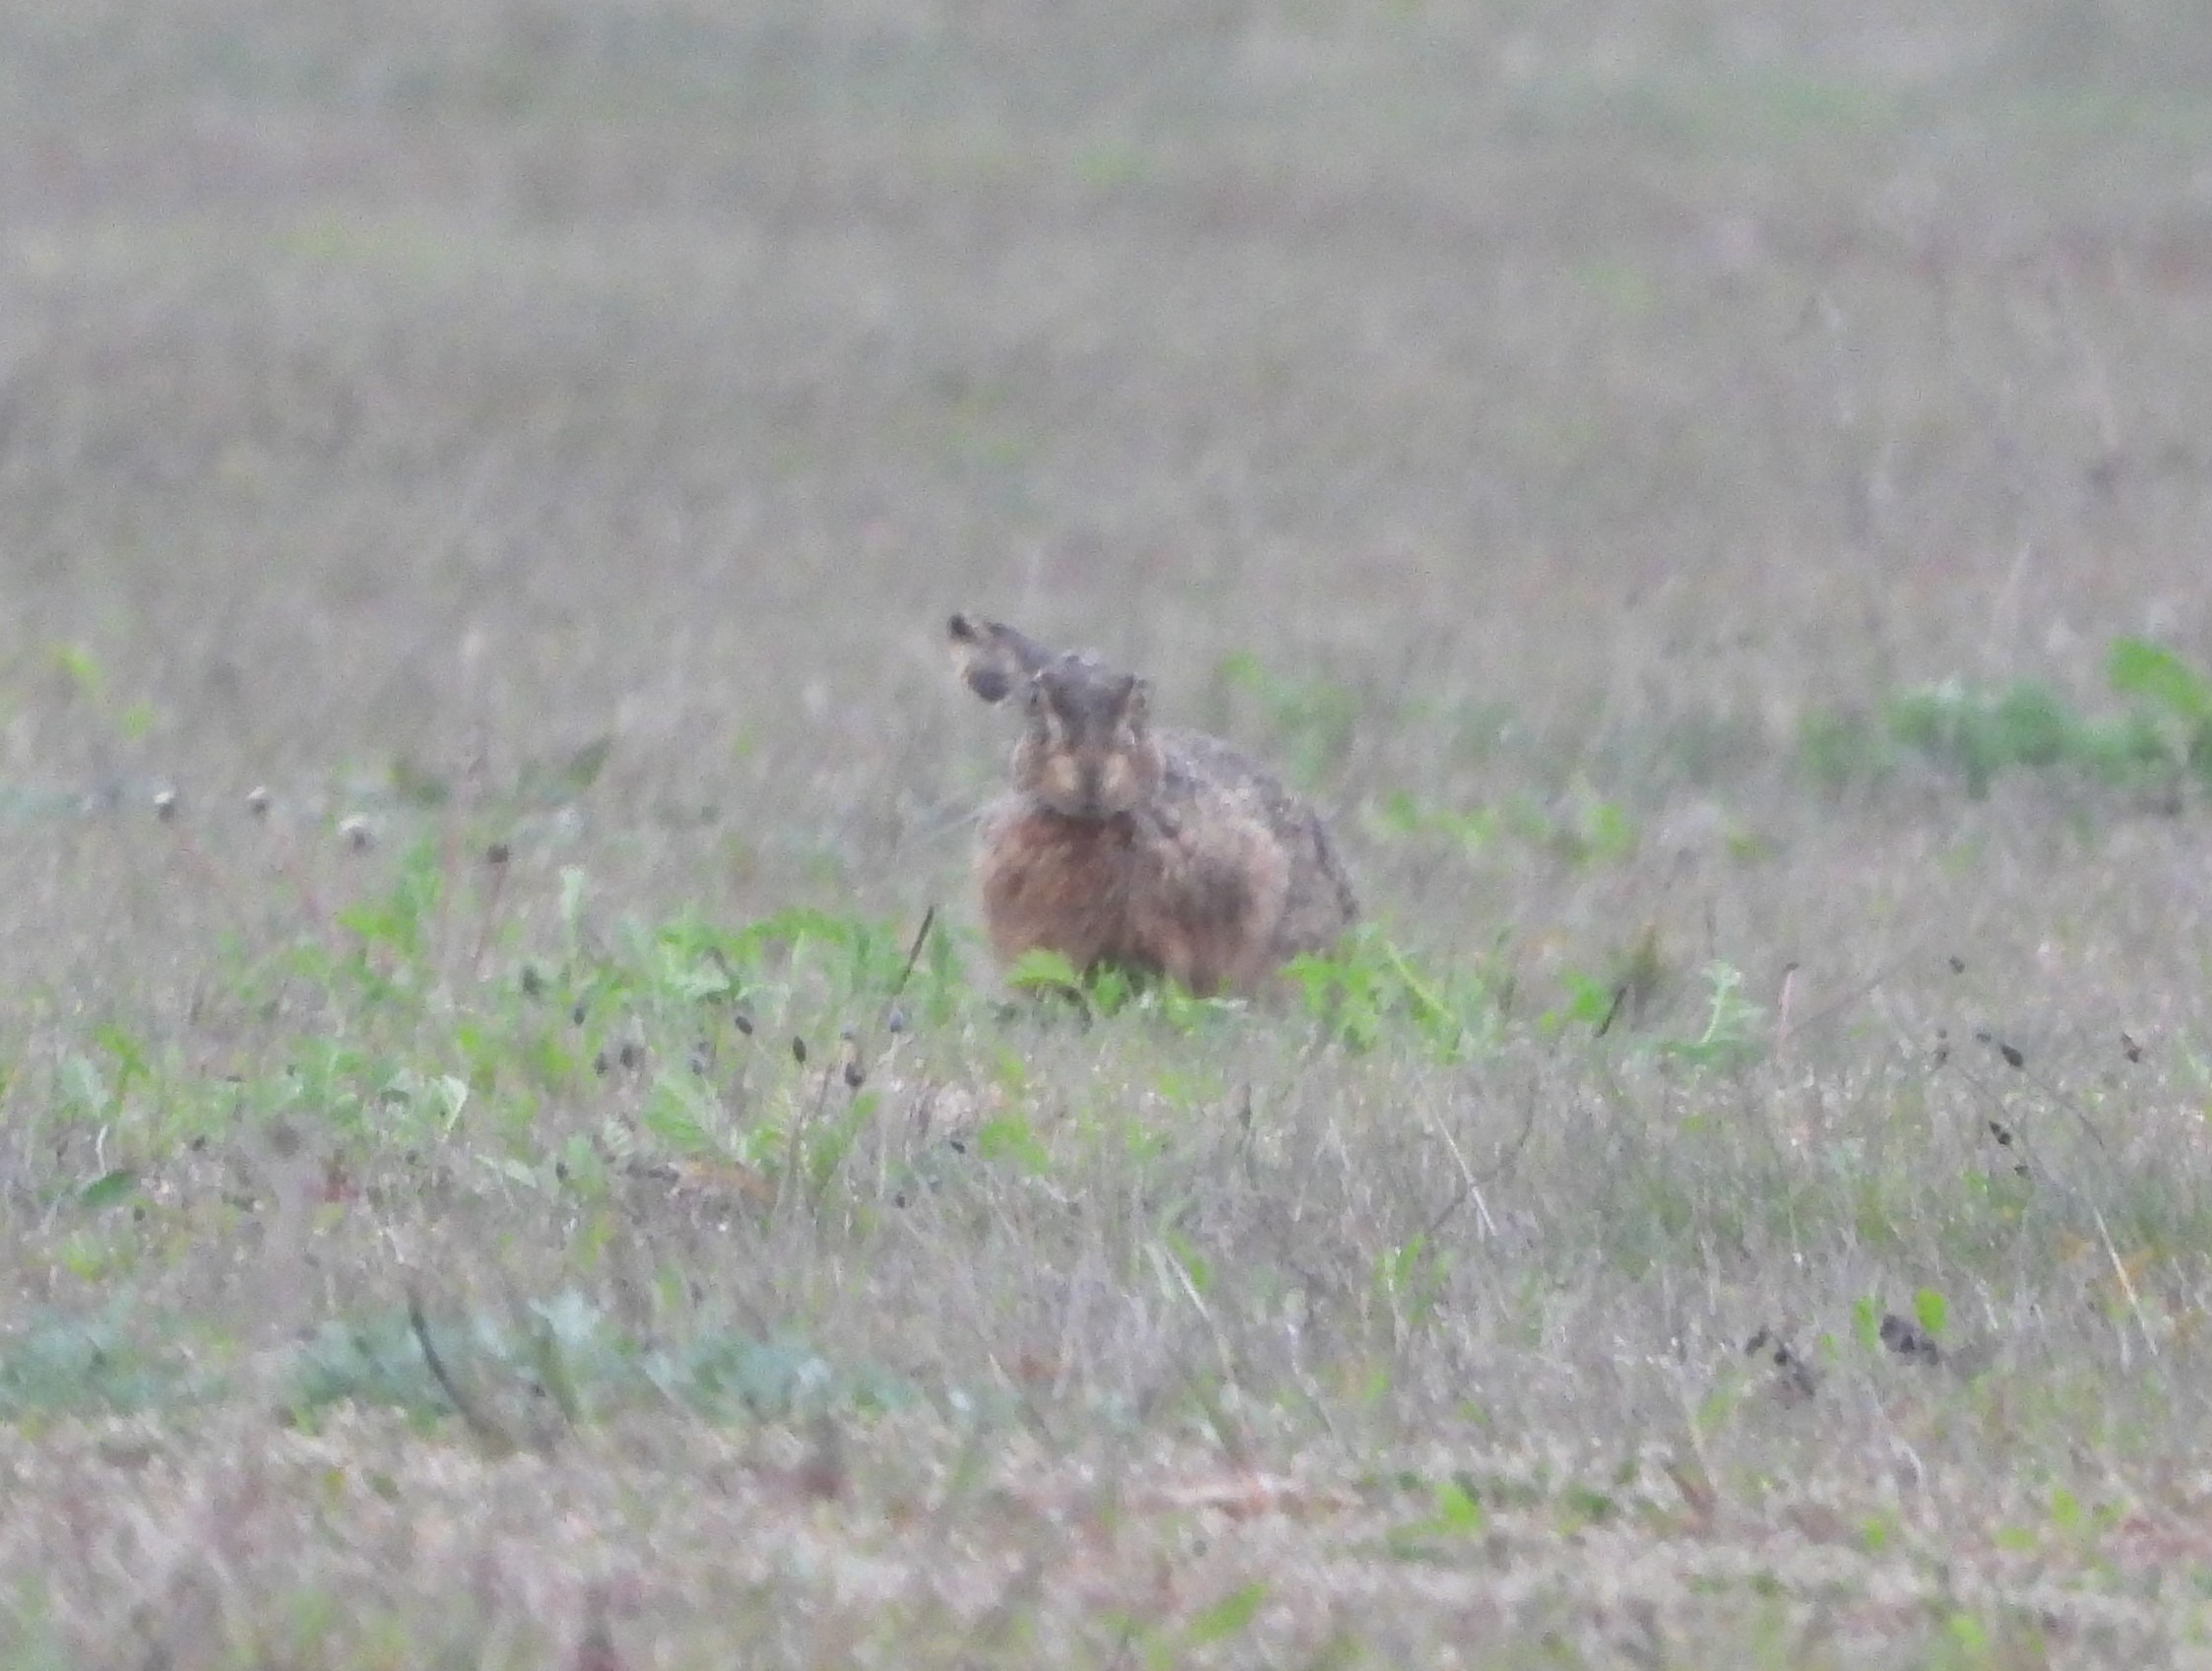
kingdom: Animalia
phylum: Chordata
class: Mammalia
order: Lagomorpha
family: Leporidae
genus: Lepus
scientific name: Lepus europaeus
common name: Hare
